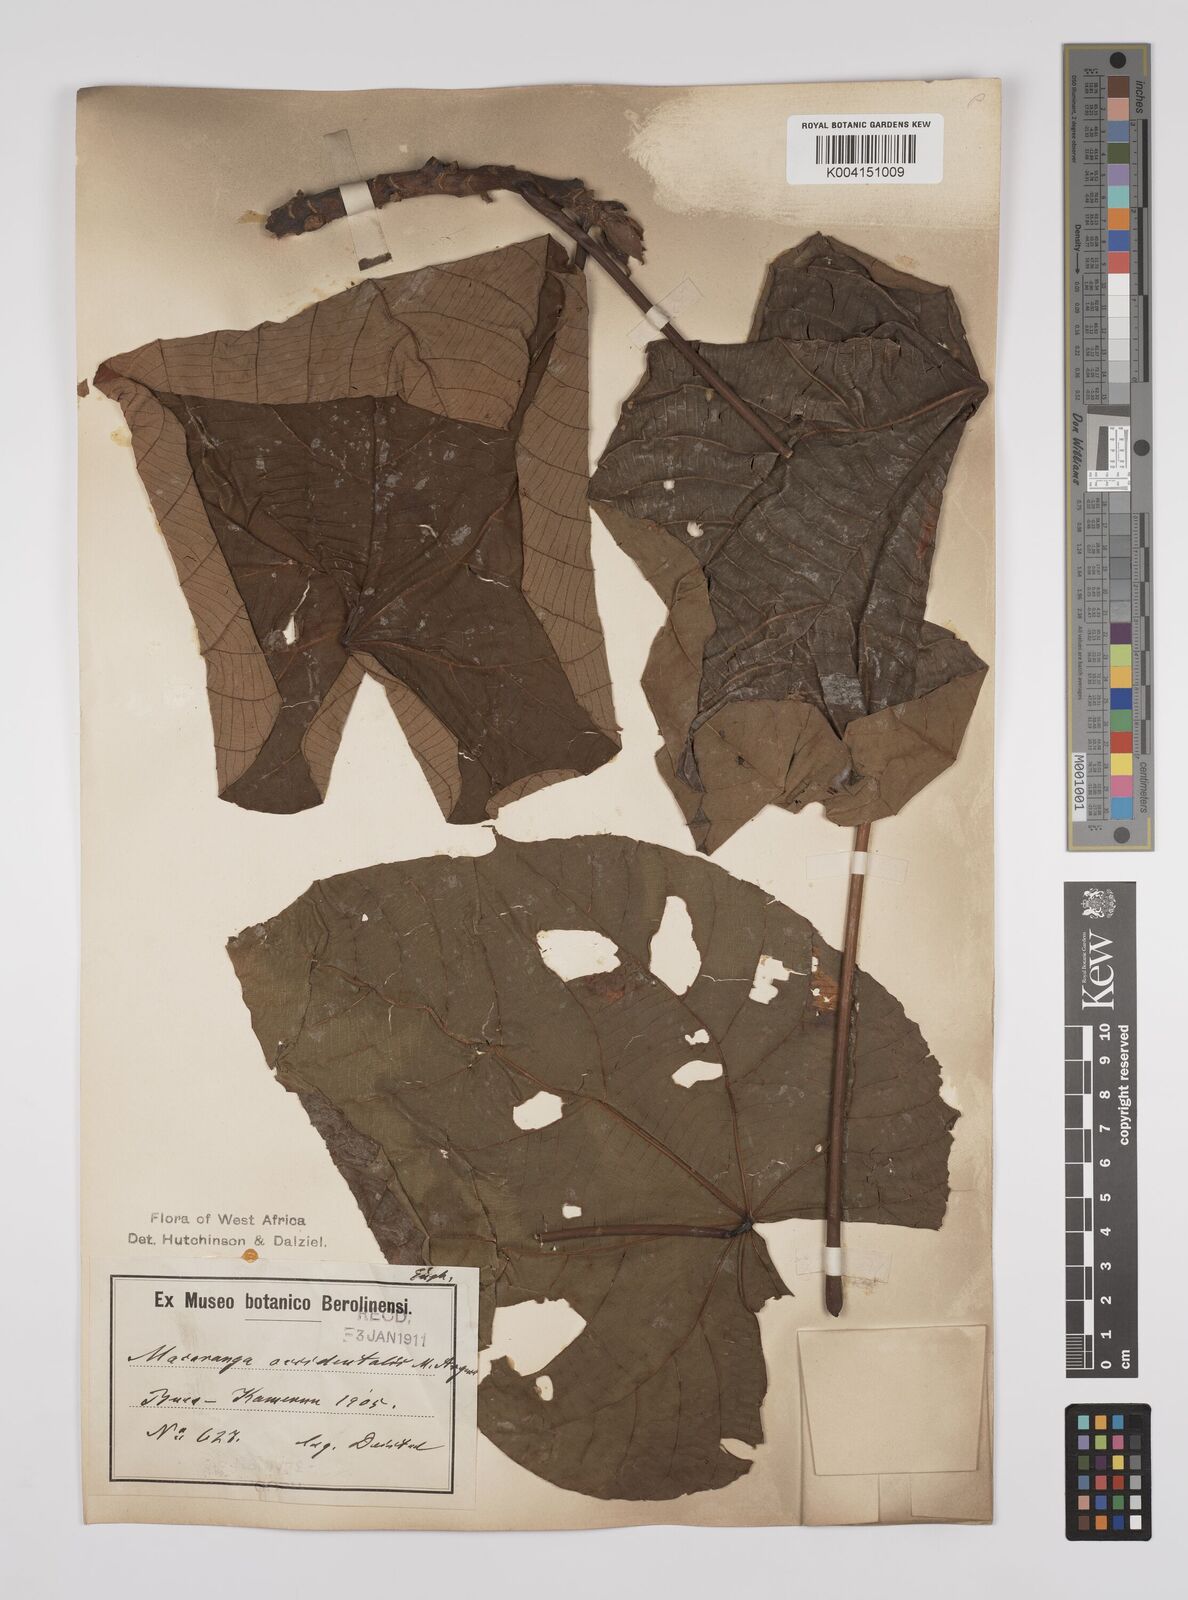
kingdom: Plantae
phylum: Tracheophyta
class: Magnoliopsida
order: Malpighiales
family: Euphorbiaceae
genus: Macaranga
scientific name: Macaranga occidentalis
